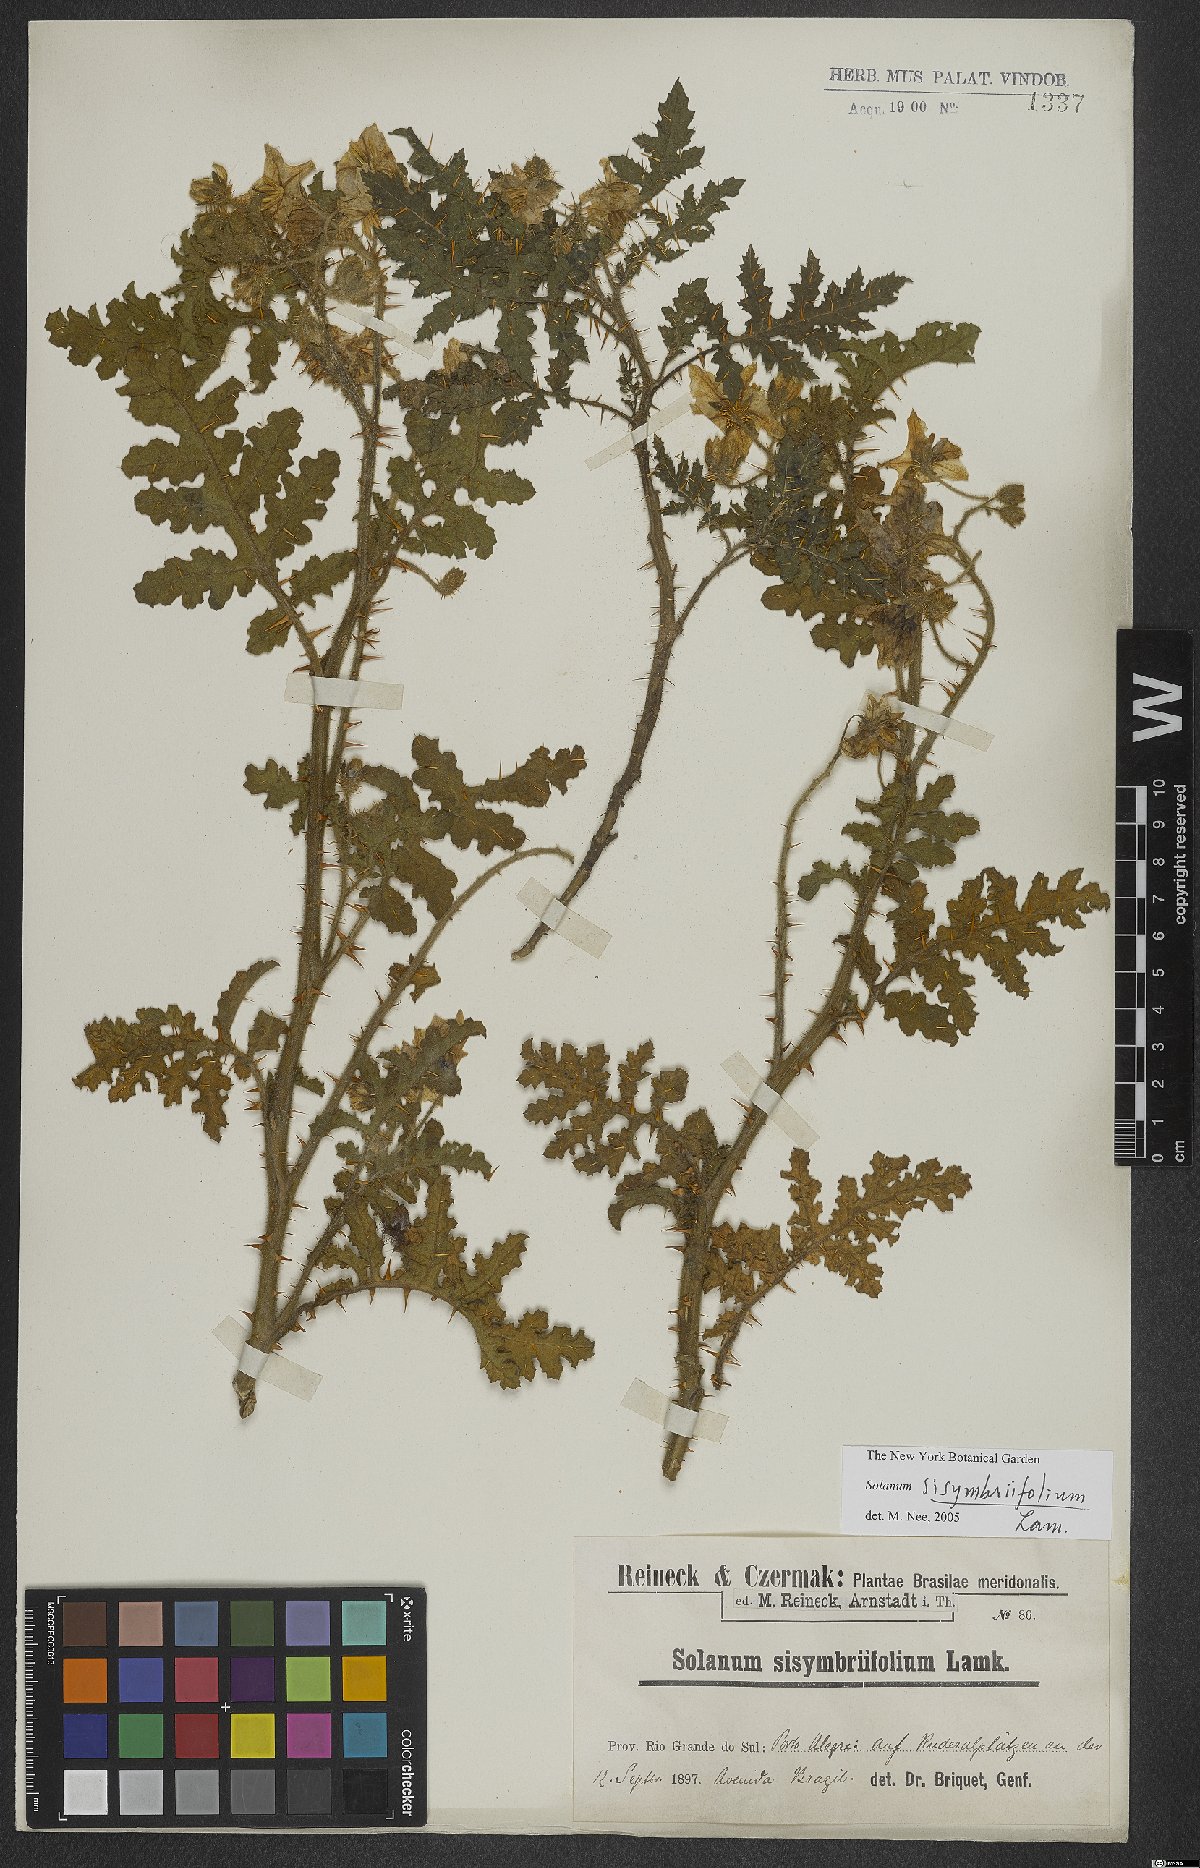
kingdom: Plantae
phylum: Tracheophyta
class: Magnoliopsida
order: Solanales
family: Solanaceae
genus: Solanum
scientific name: Solanum sisymbriifolium
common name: Red buffalo-bur
